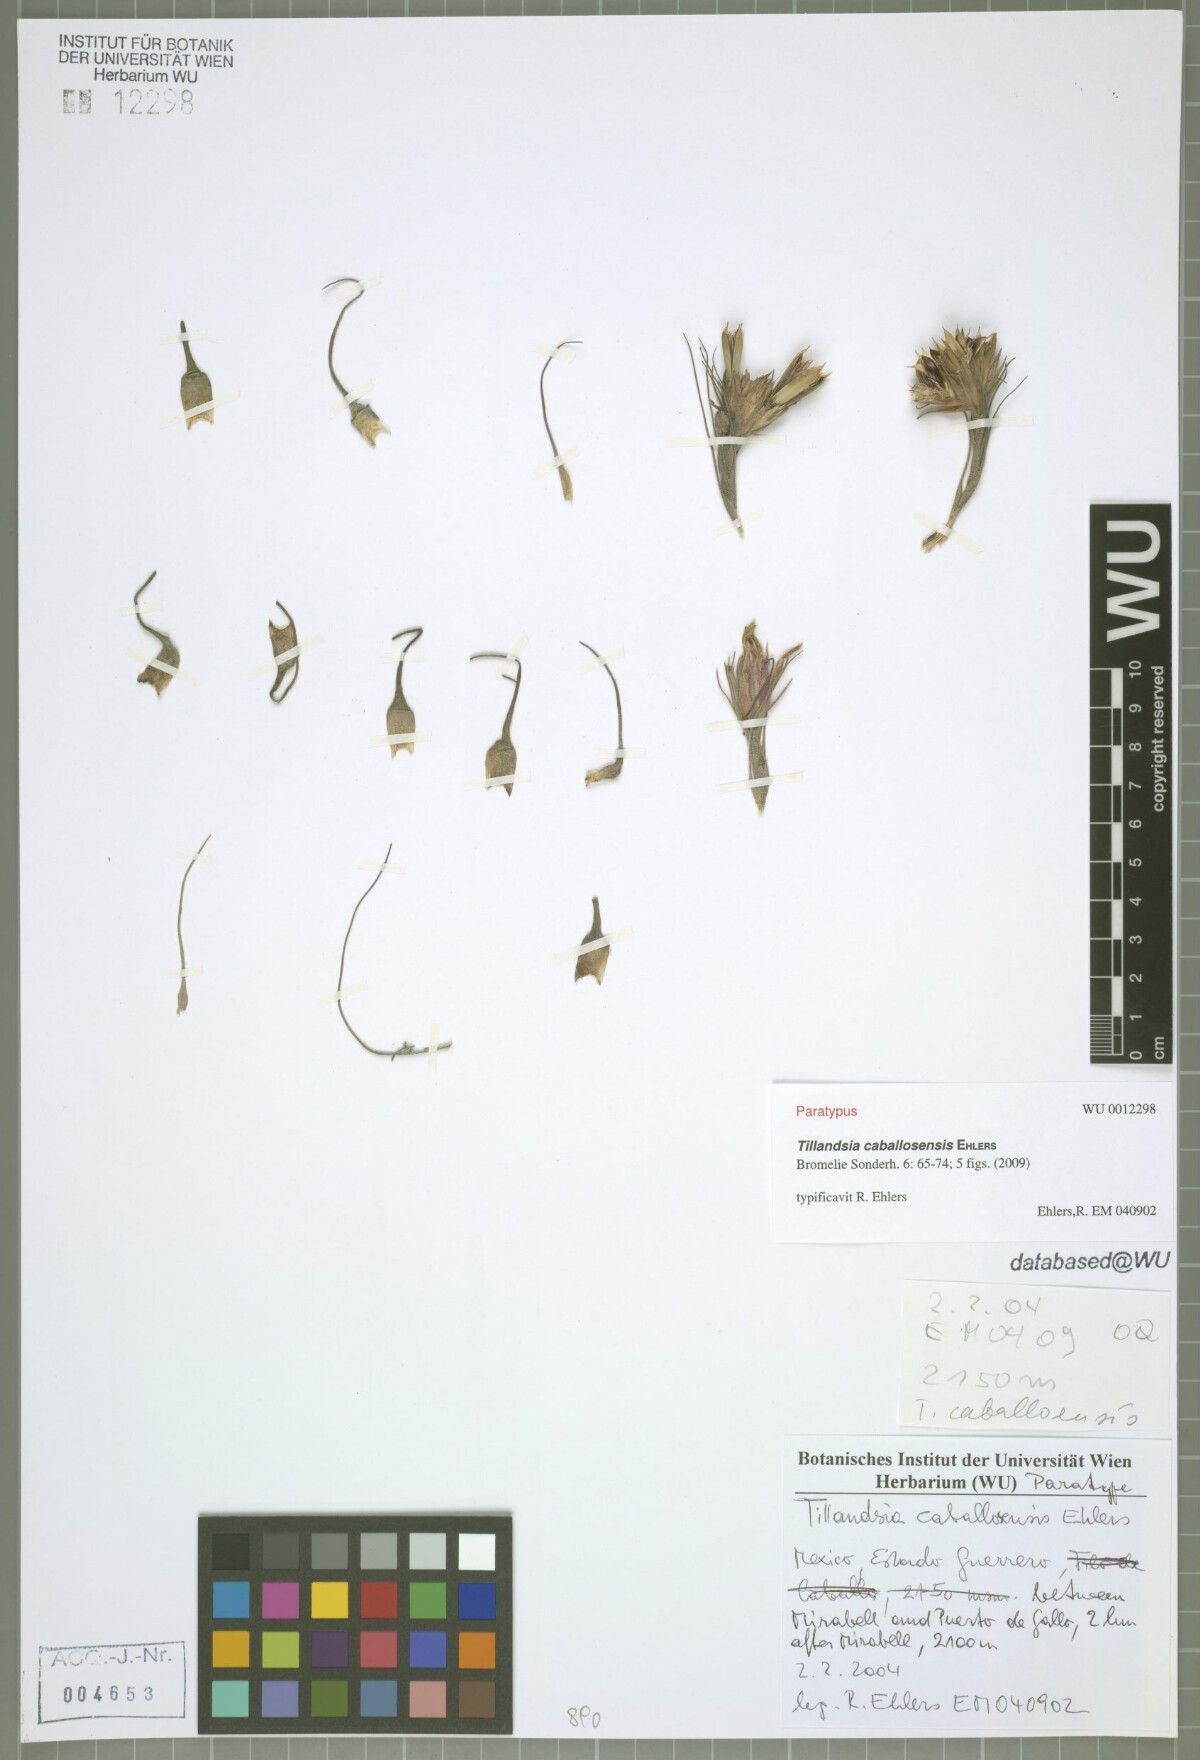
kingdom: Plantae
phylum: Tracheophyta
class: Liliopsida
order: Poales
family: Bromeliaceae
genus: Tillandsia
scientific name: Tillandsia caballosensis
